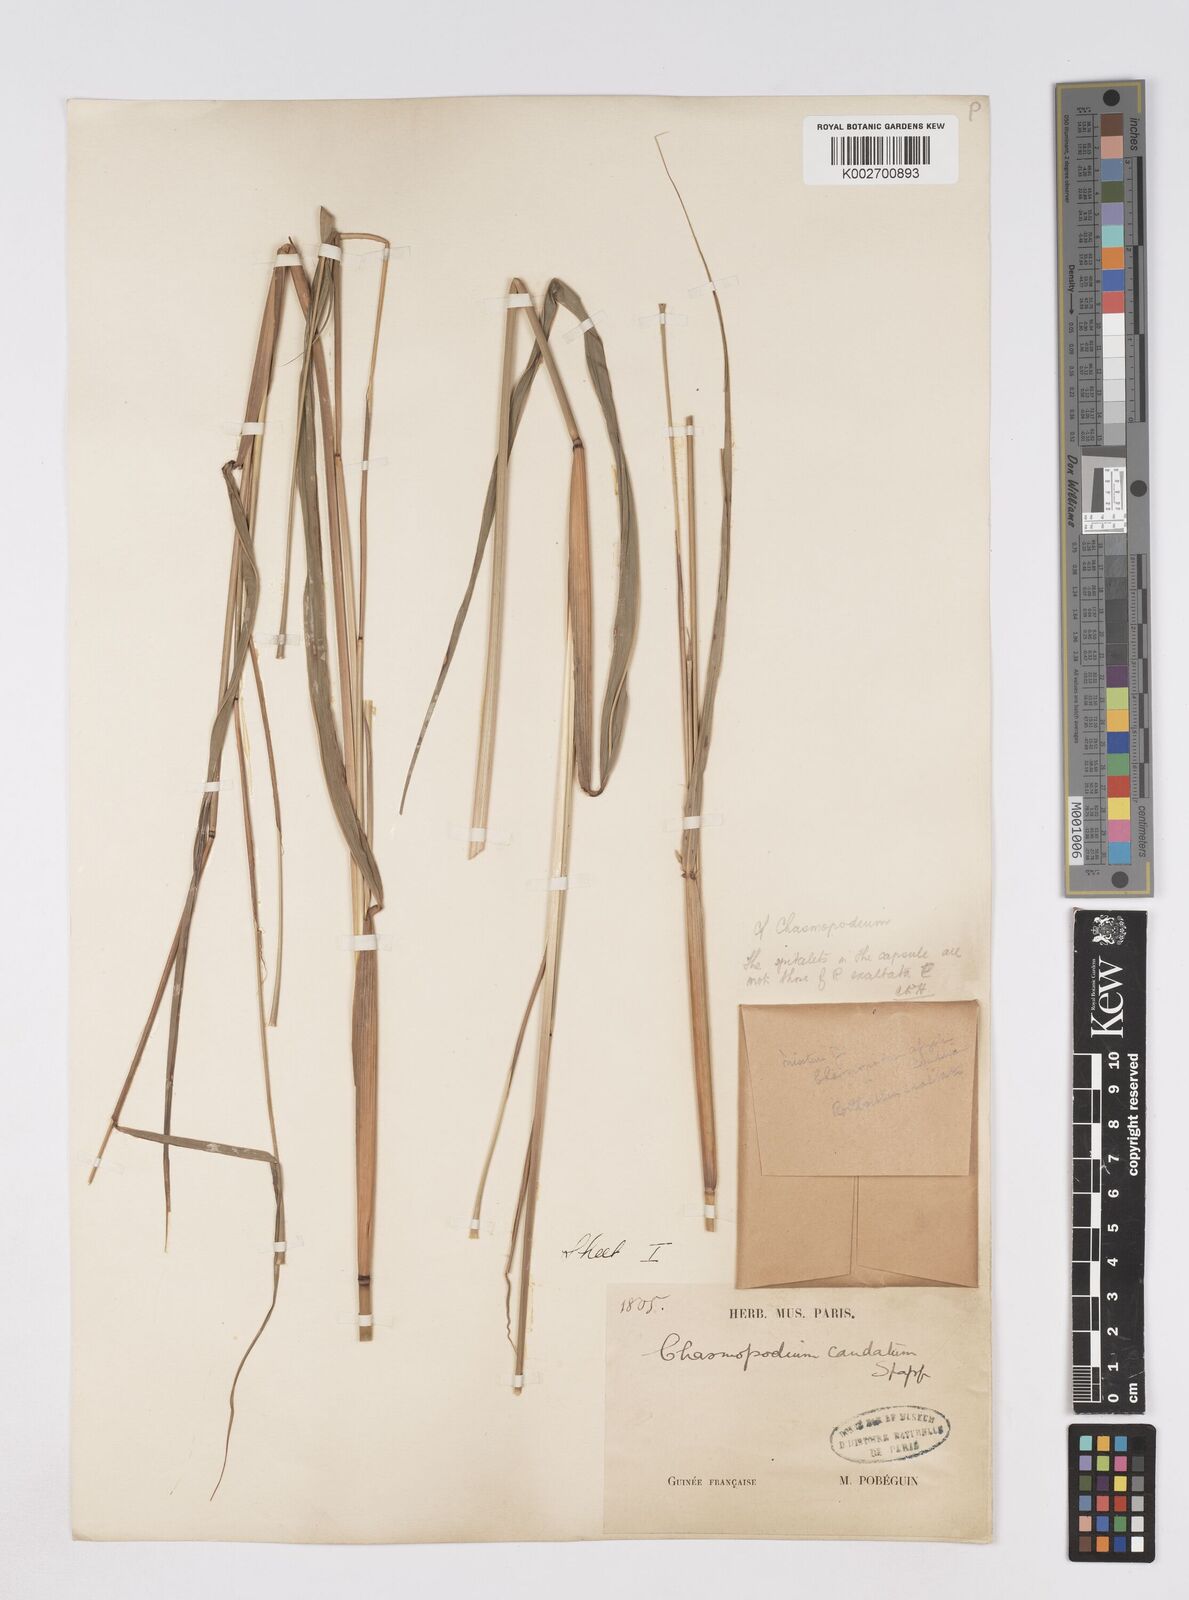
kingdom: Plantae
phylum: Tracheophyta
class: Liliopsida
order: Poales
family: Poaceae
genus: Chasmopodium
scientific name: Chasmopodium caudatum
